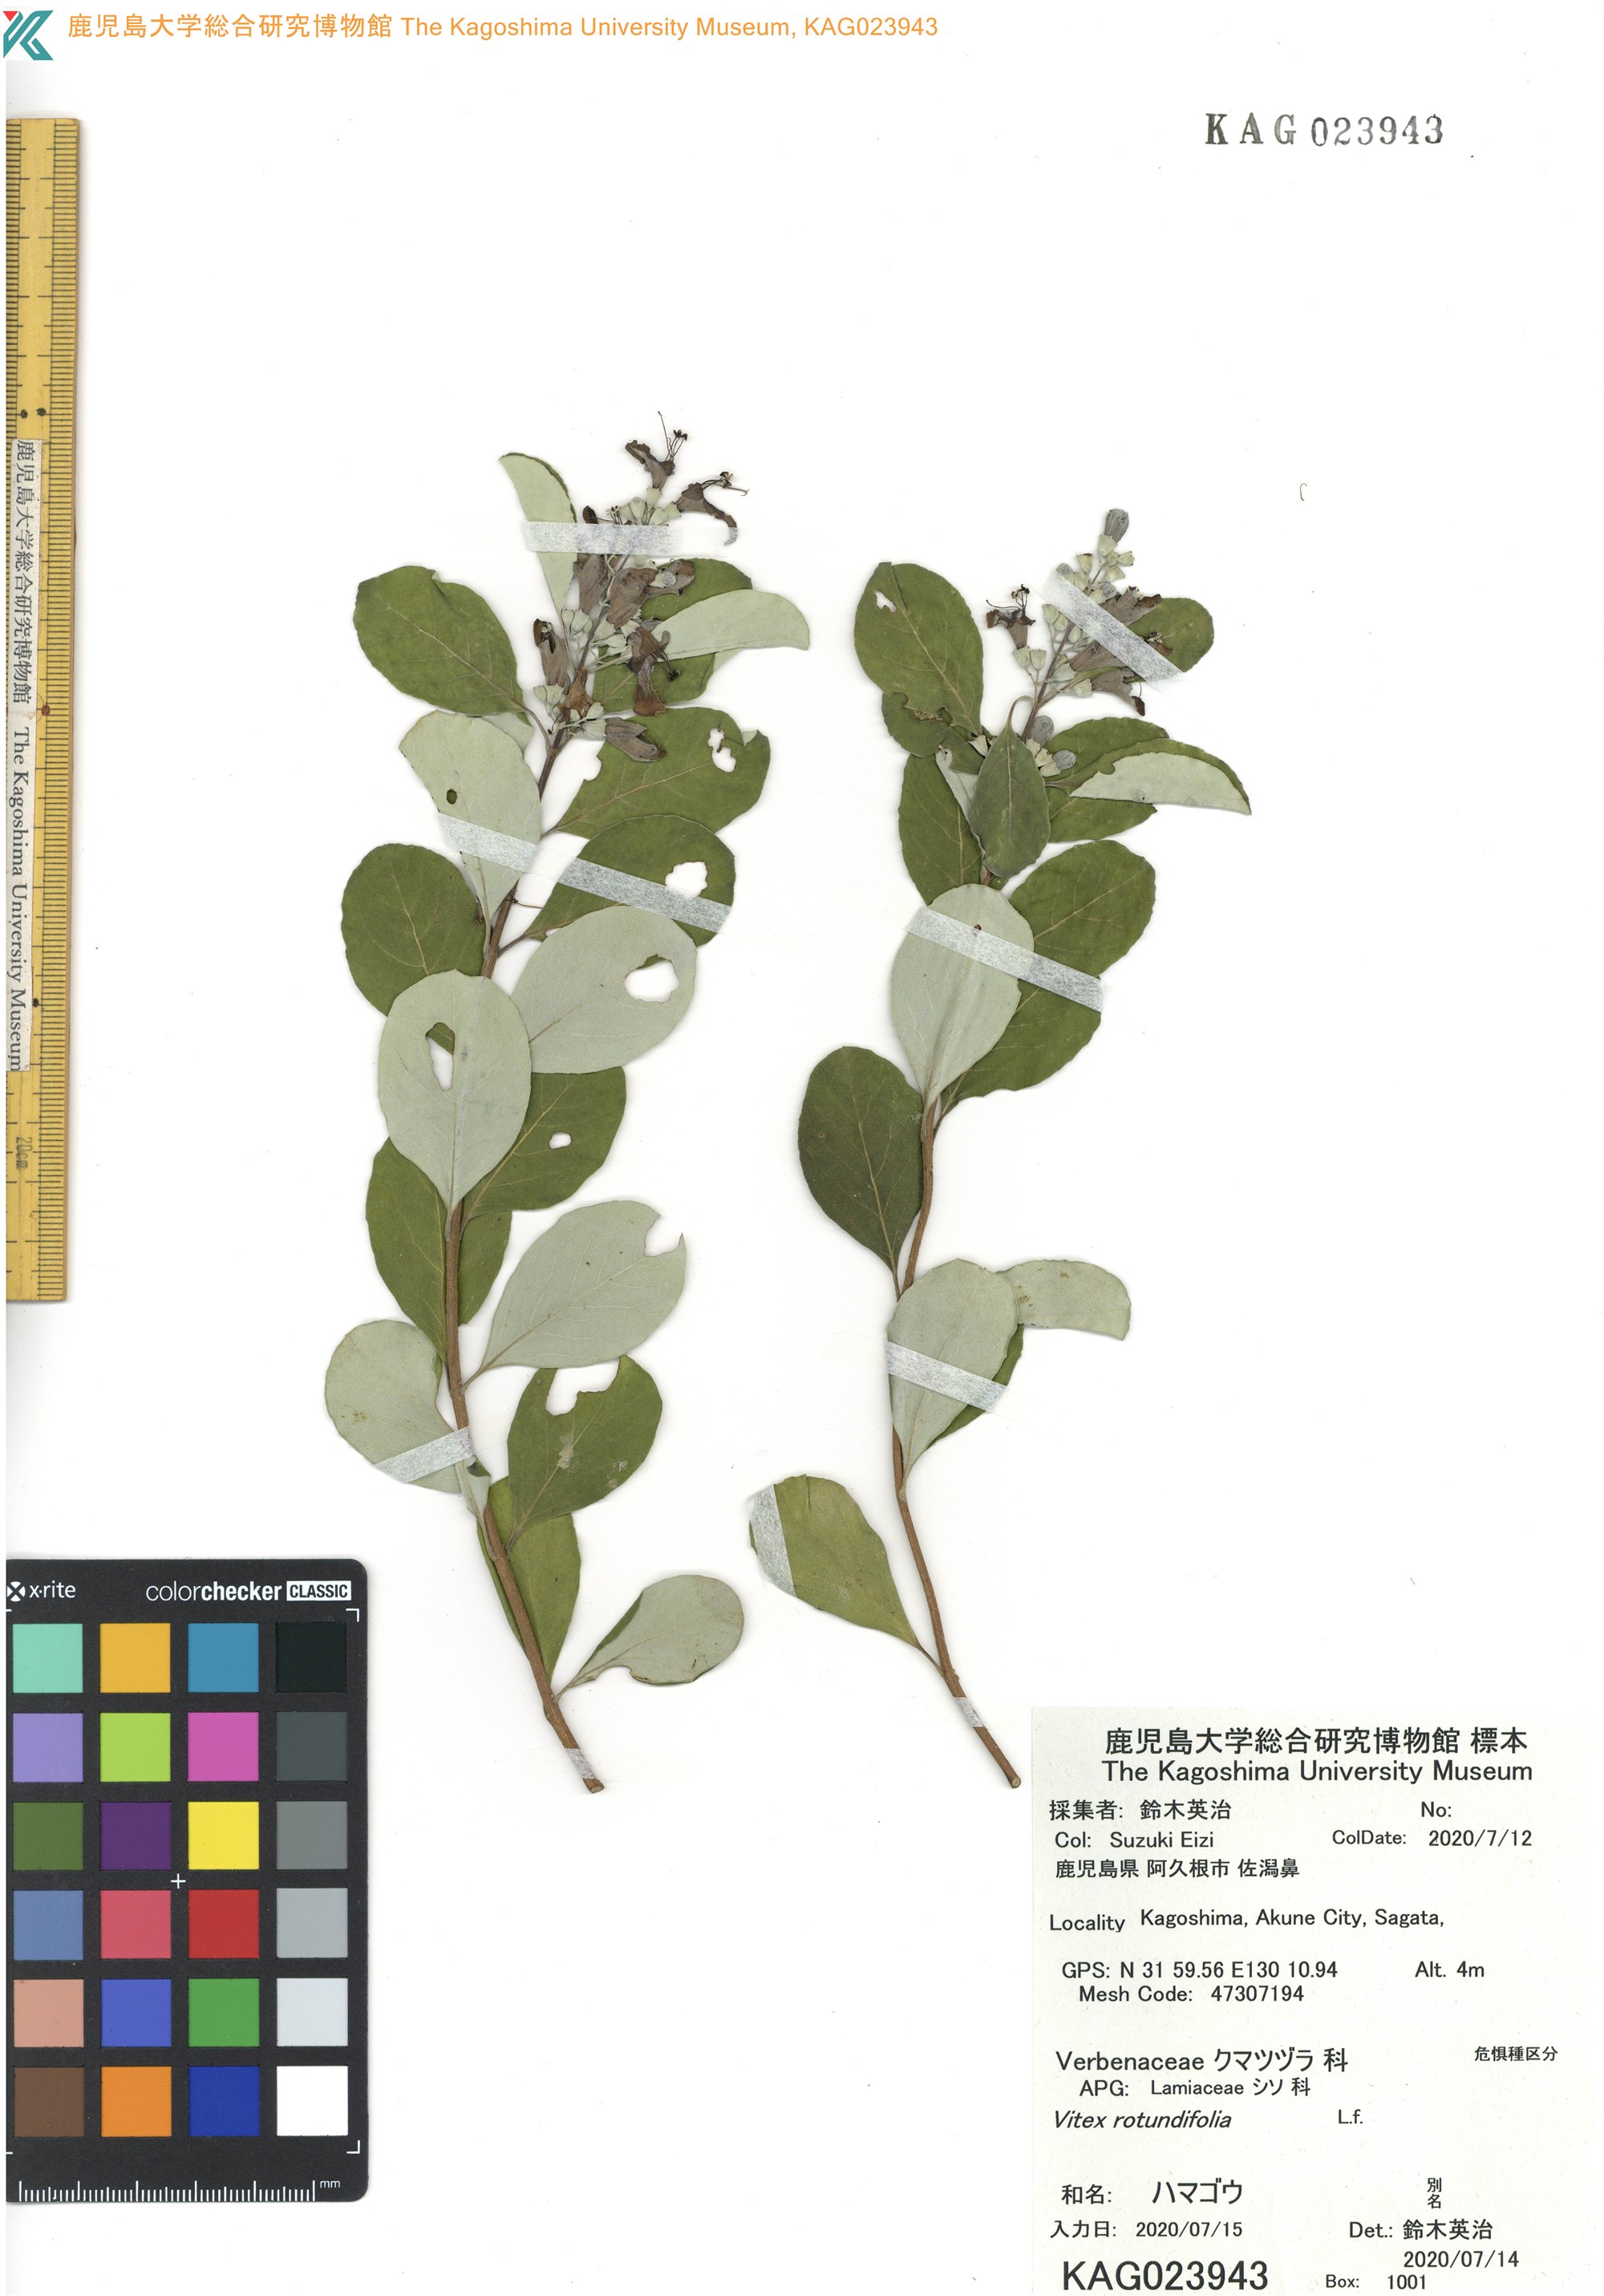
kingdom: Plantae
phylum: Tracheophyta
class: Magnoliopsida
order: Lamiales
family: Lamiaceae
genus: Vitex
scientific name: Vitex rotundifolia
